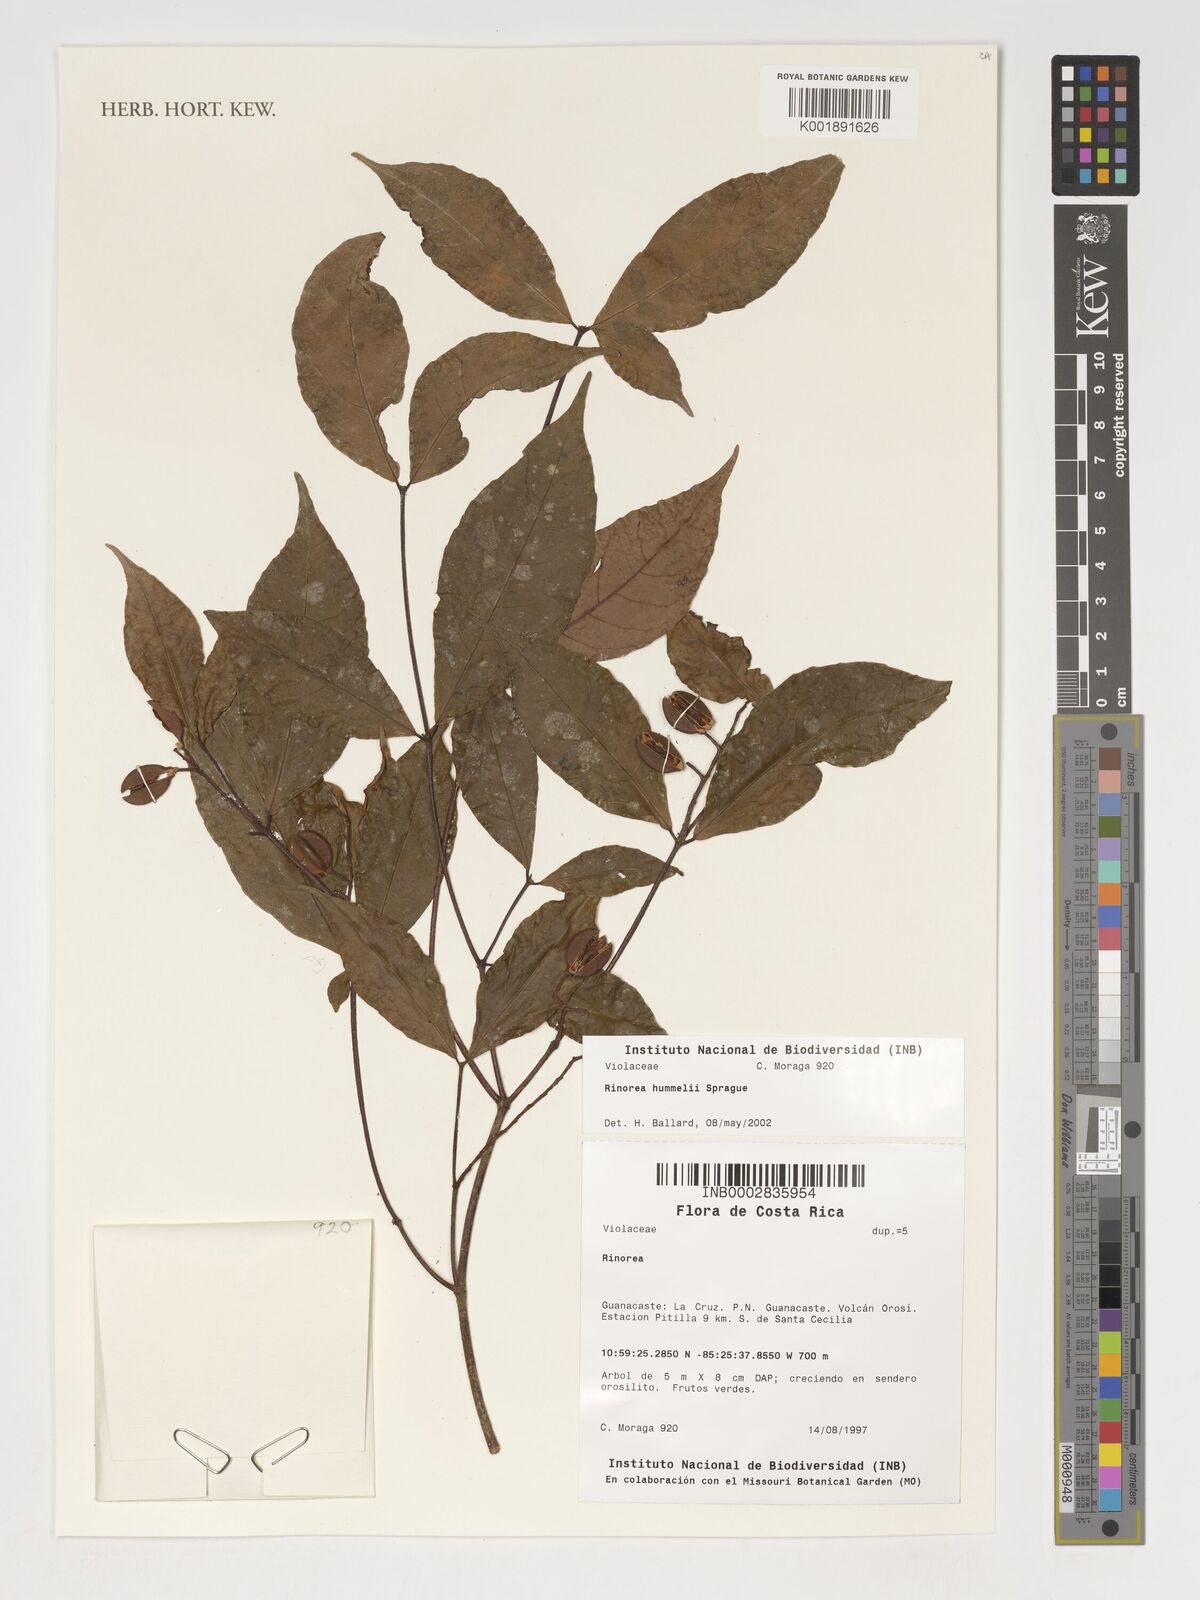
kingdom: Plantae
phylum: Tracheophyta
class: Magnoliopsida
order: Malpighiales
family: Violaceae
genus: Rinorea
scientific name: Rinorea hummelii
